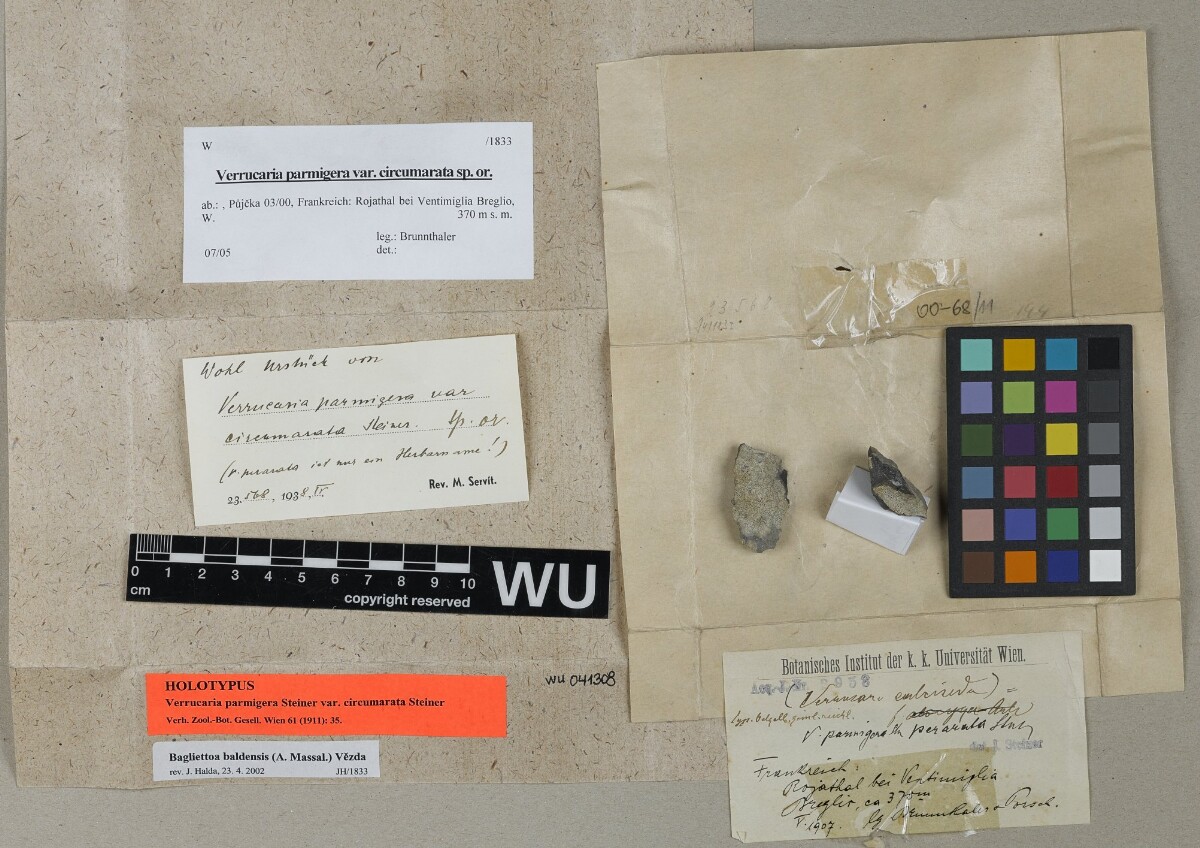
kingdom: Fungi
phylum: Ascomycota
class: Eurotiomycetes
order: Verrucariales
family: Verrucariaceae
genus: Bagliettoa
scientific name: Bagliettoa parmigera
